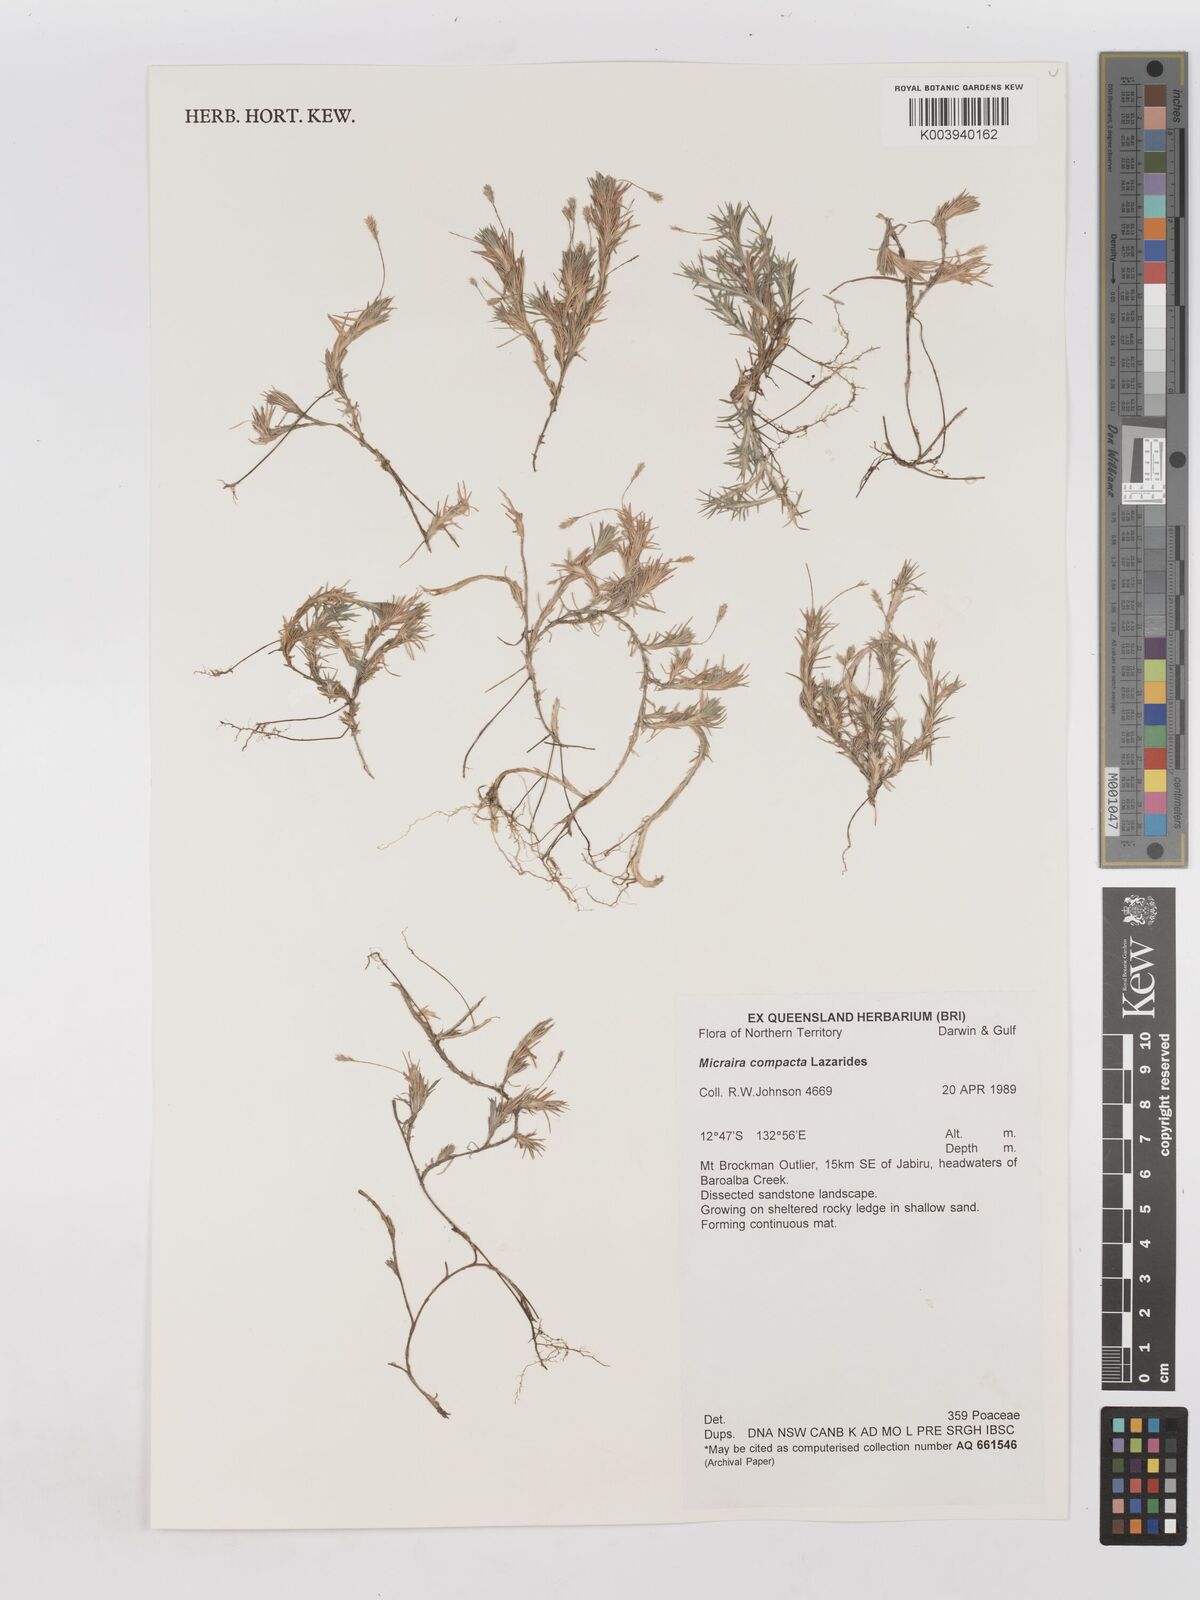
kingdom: Plantae
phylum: Tracheophyta
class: Liliopsida
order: Poales
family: Poaceae
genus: Micraira
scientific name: Micraira compacta
